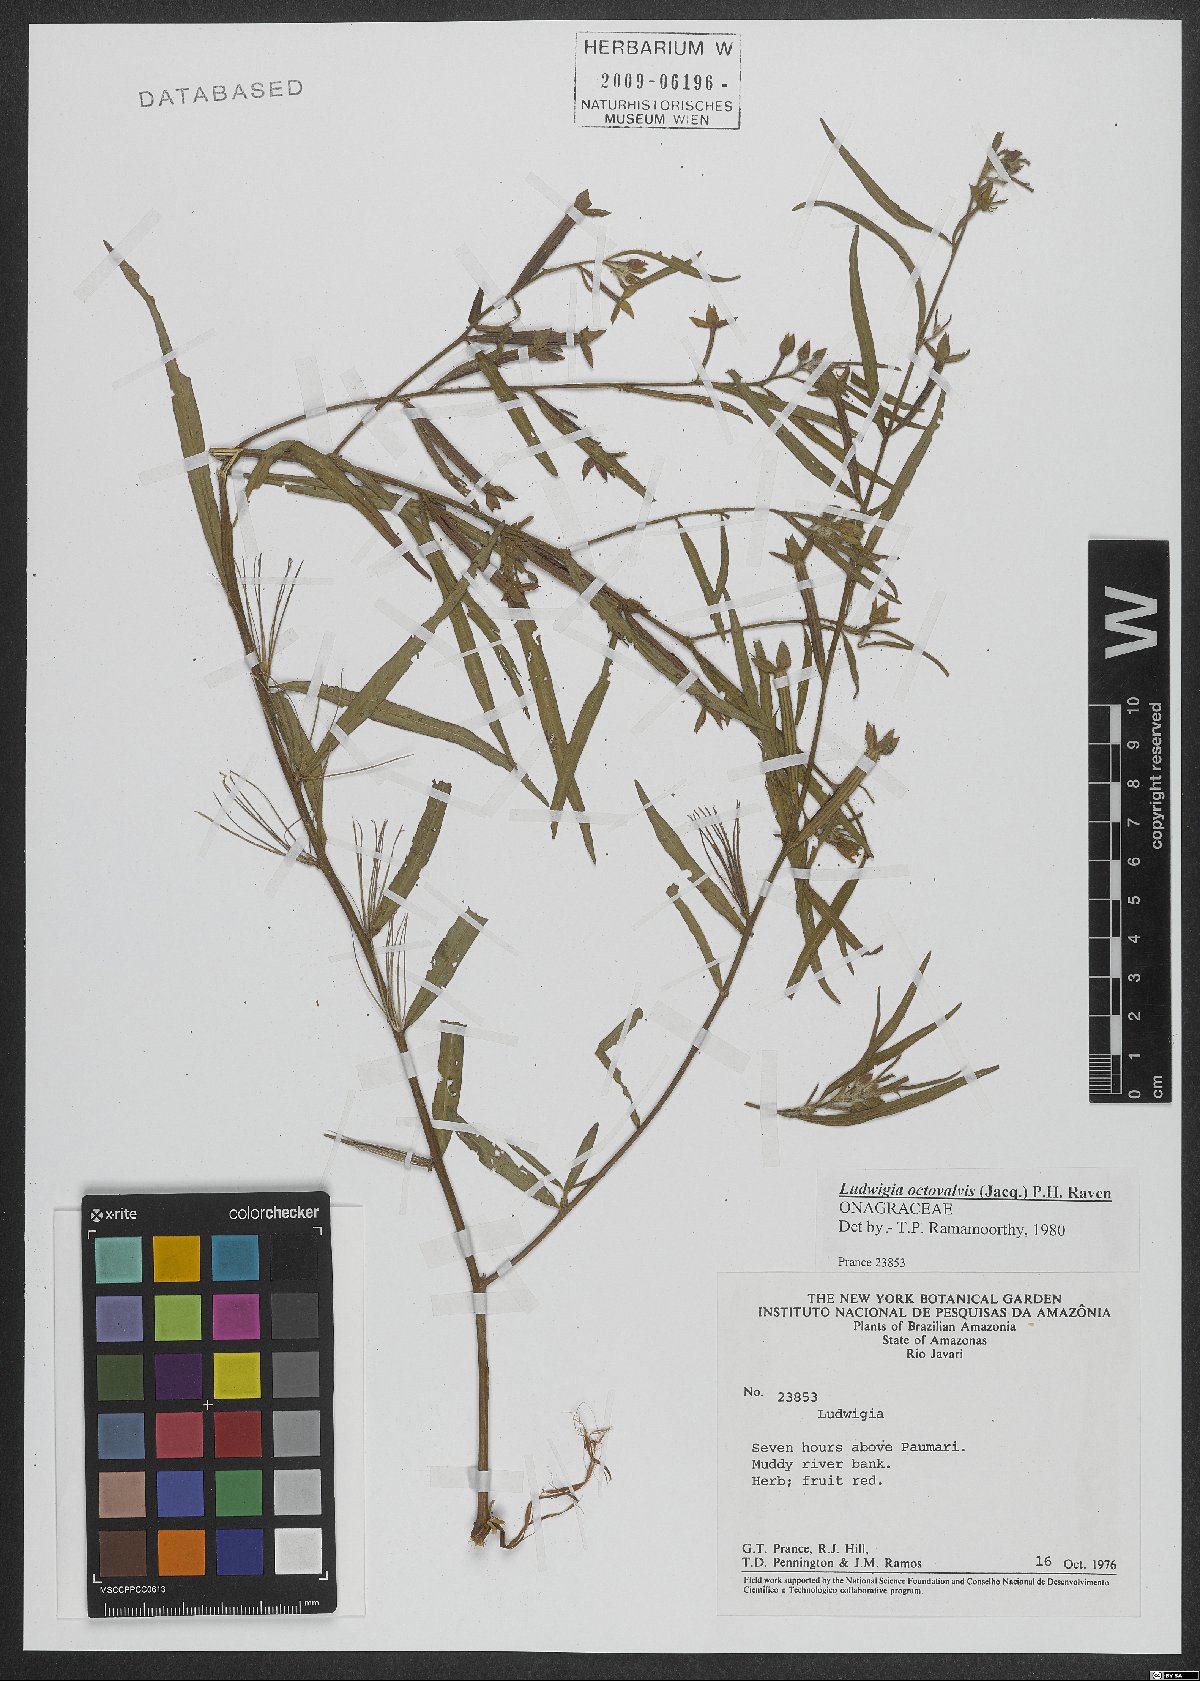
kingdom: Plantae
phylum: Tracheophyta
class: Magnoliopsida
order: Myrtales
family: Onagraceae
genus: Ludwigia
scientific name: Ludwigia octovalvis
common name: Water-primrose
